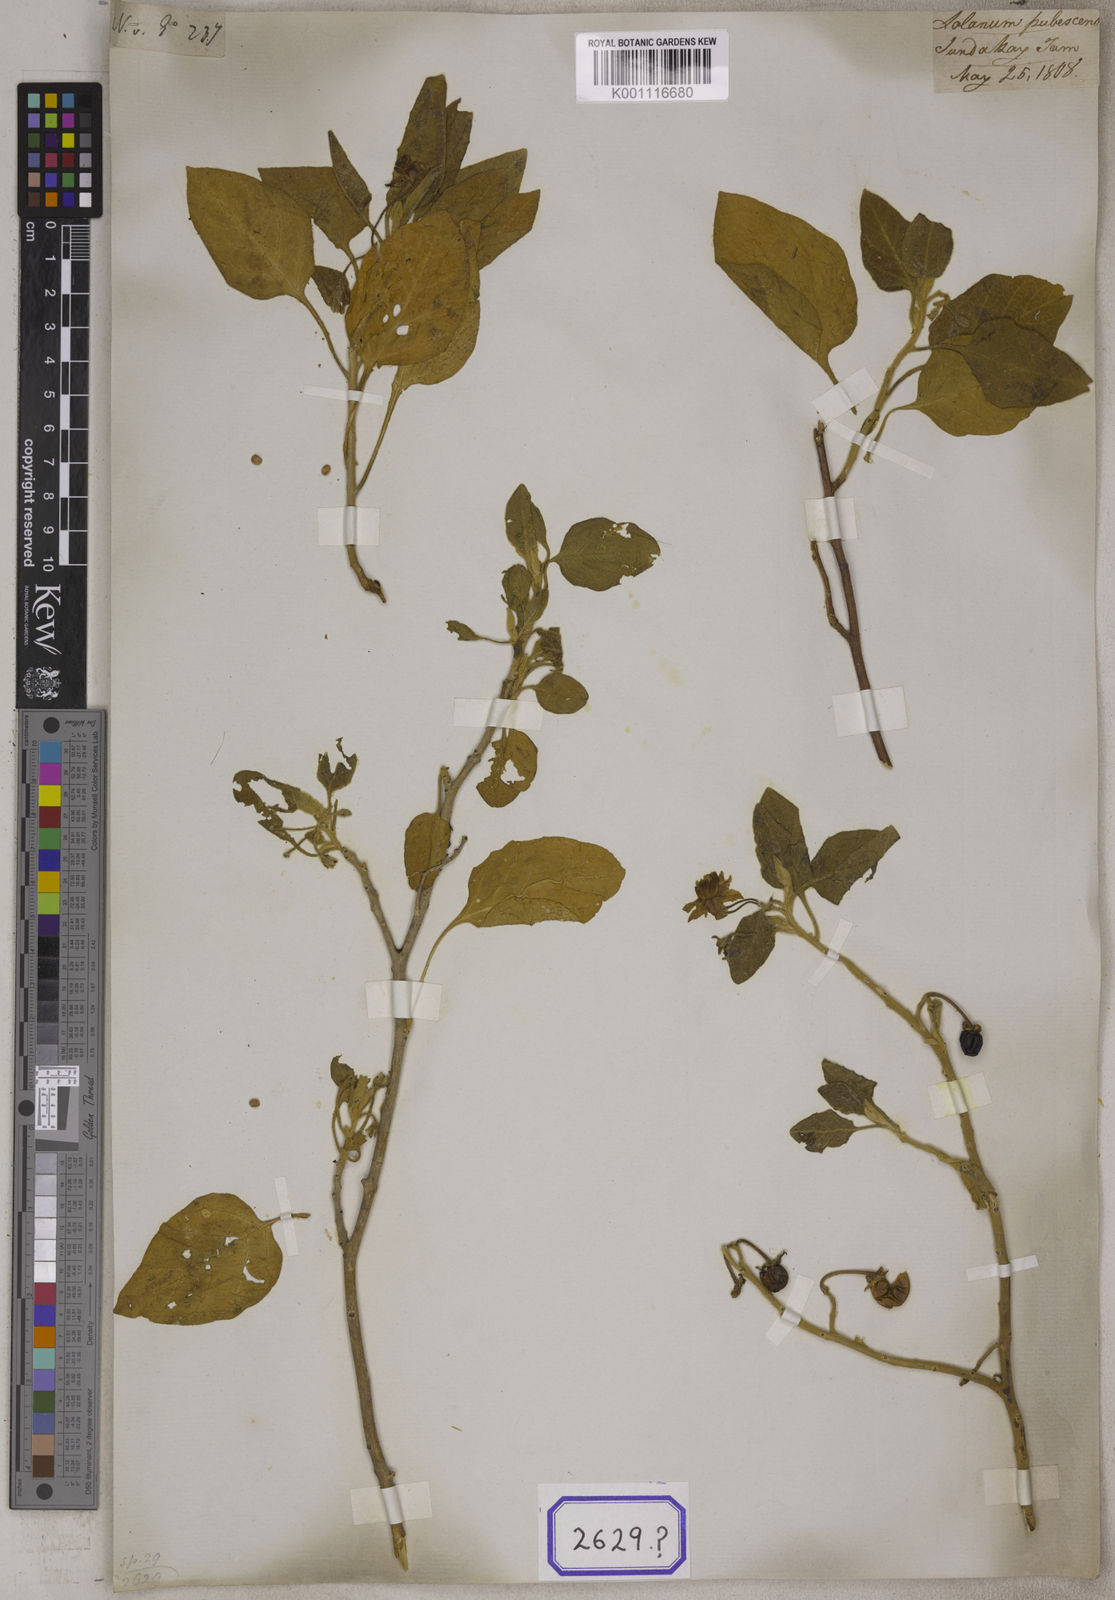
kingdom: Plantae
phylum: Tracheophyta
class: Magnoliopsida
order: Solanales
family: Solanaceae
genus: Solanum
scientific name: Solanum pubescens
